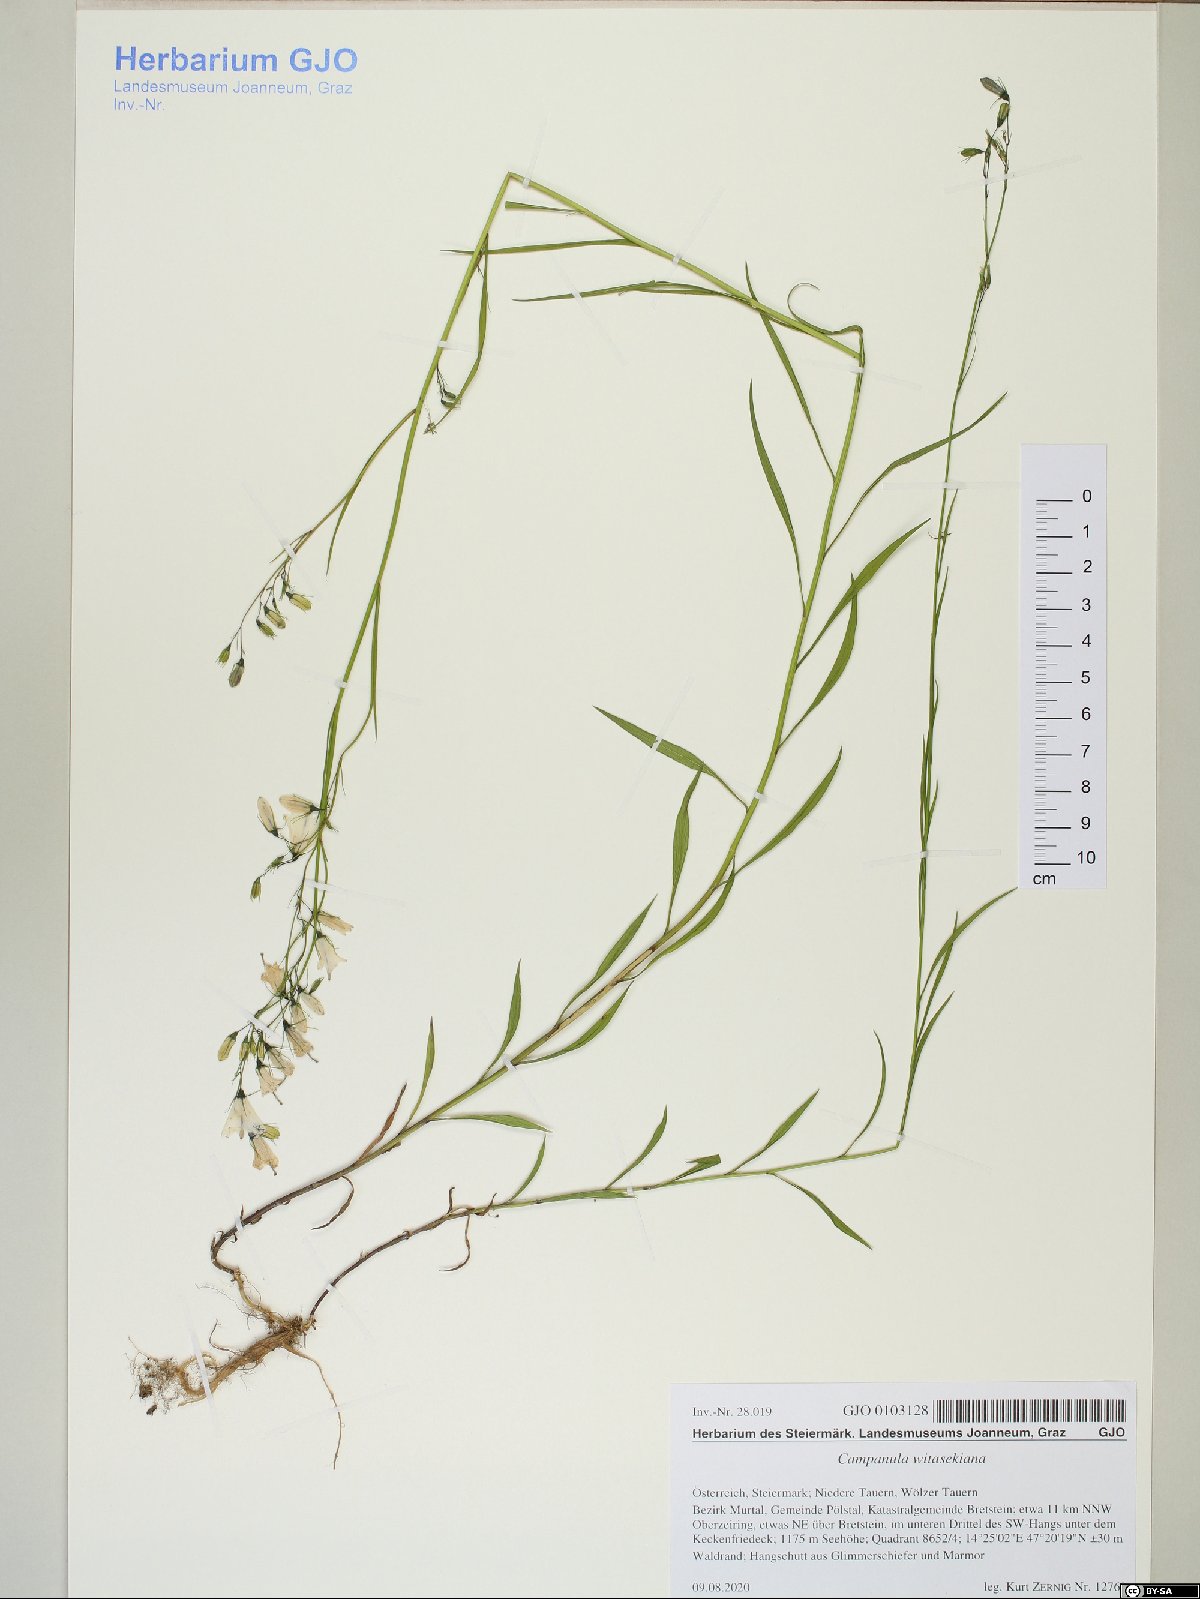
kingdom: Plantae
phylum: Tracheophyta
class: Magnoliopsida
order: Asterales
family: Campanulaceae
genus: Campanula
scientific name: Campanula witasekiana
